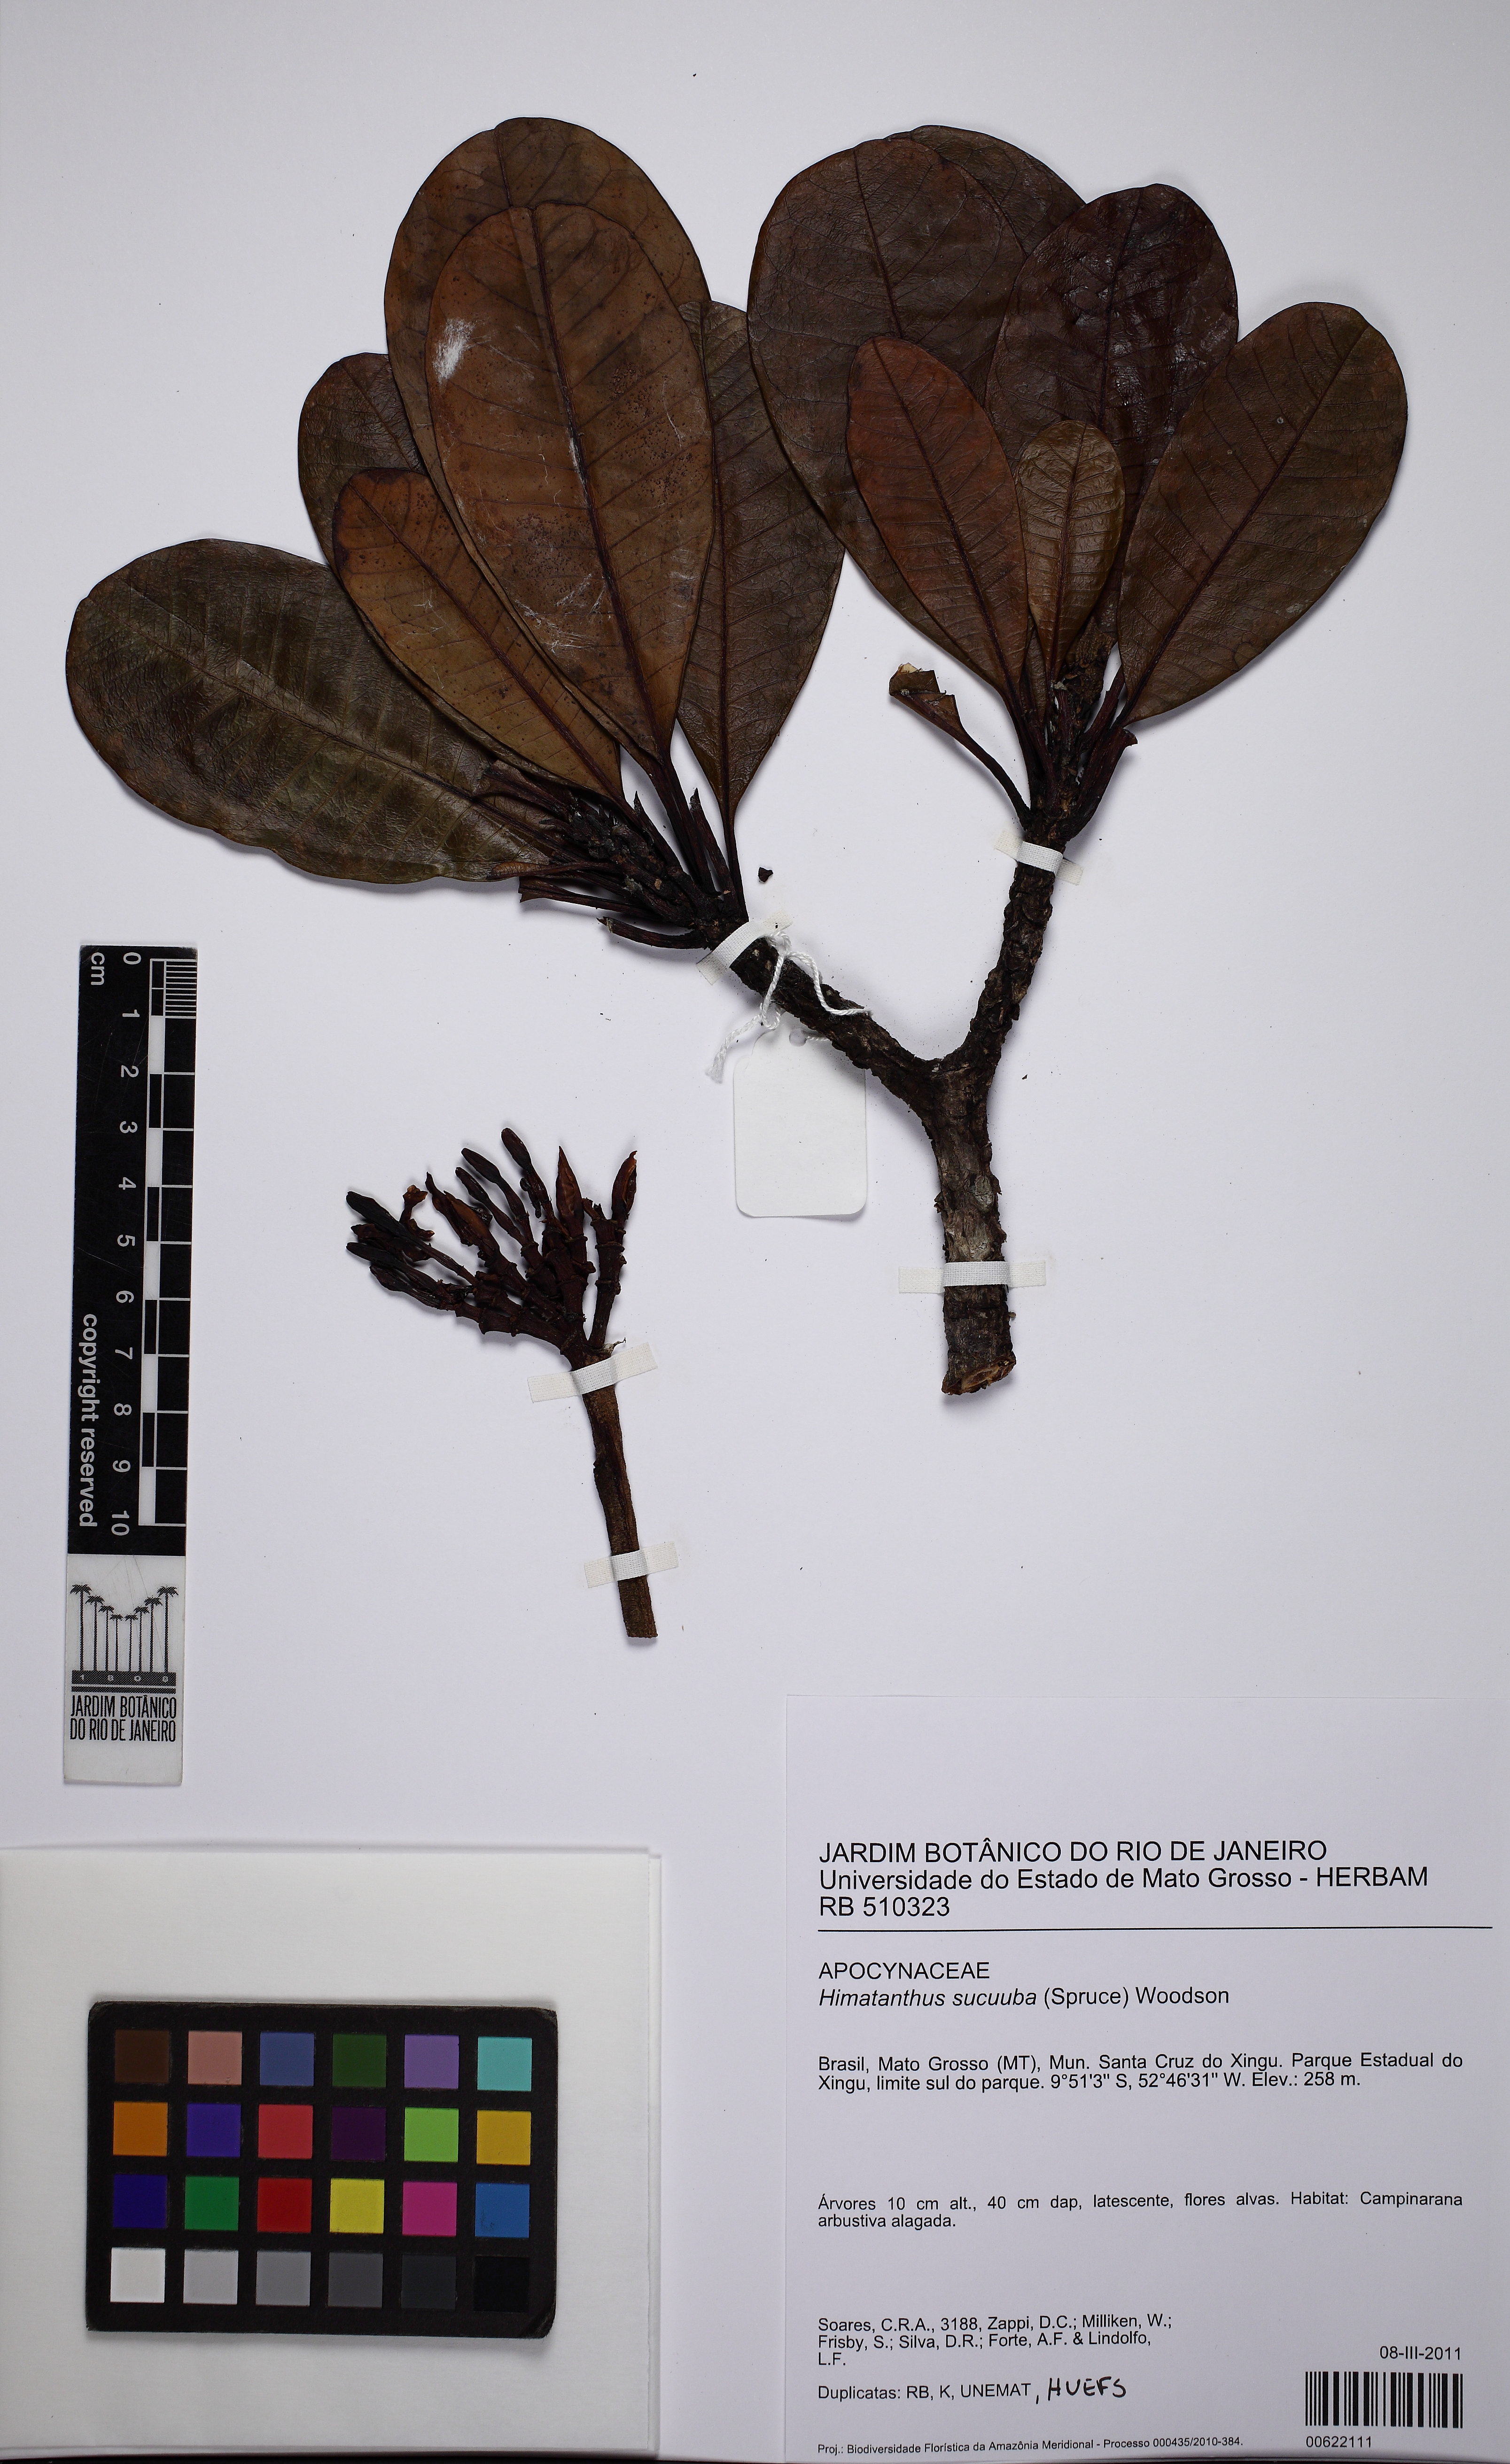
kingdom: Plantae
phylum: Tracheophyta
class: Magnoliopsida
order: Gentianales
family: Apocynaceae
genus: Himatanthus
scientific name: Himatanthus articulatus
